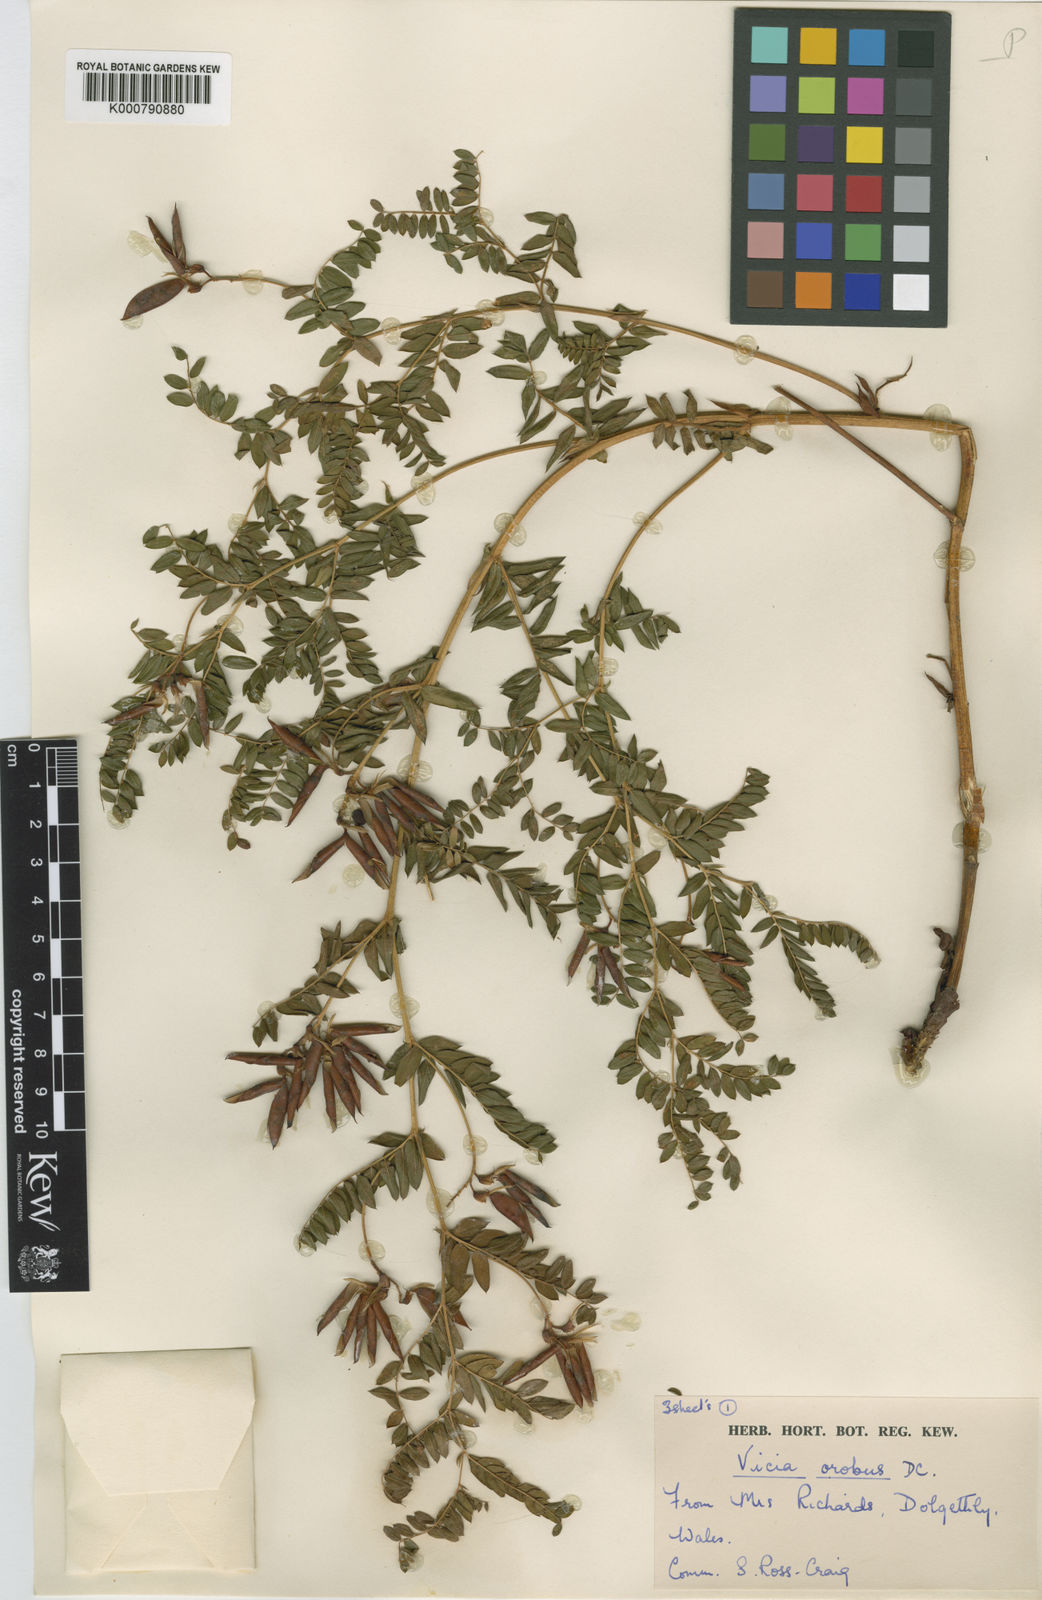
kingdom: Plantae
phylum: Tracheophyta
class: Magnoliopsida
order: Fabales
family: Fabaceae
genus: Vicia
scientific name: Vicia orobus
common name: Wood bitter-vetch
